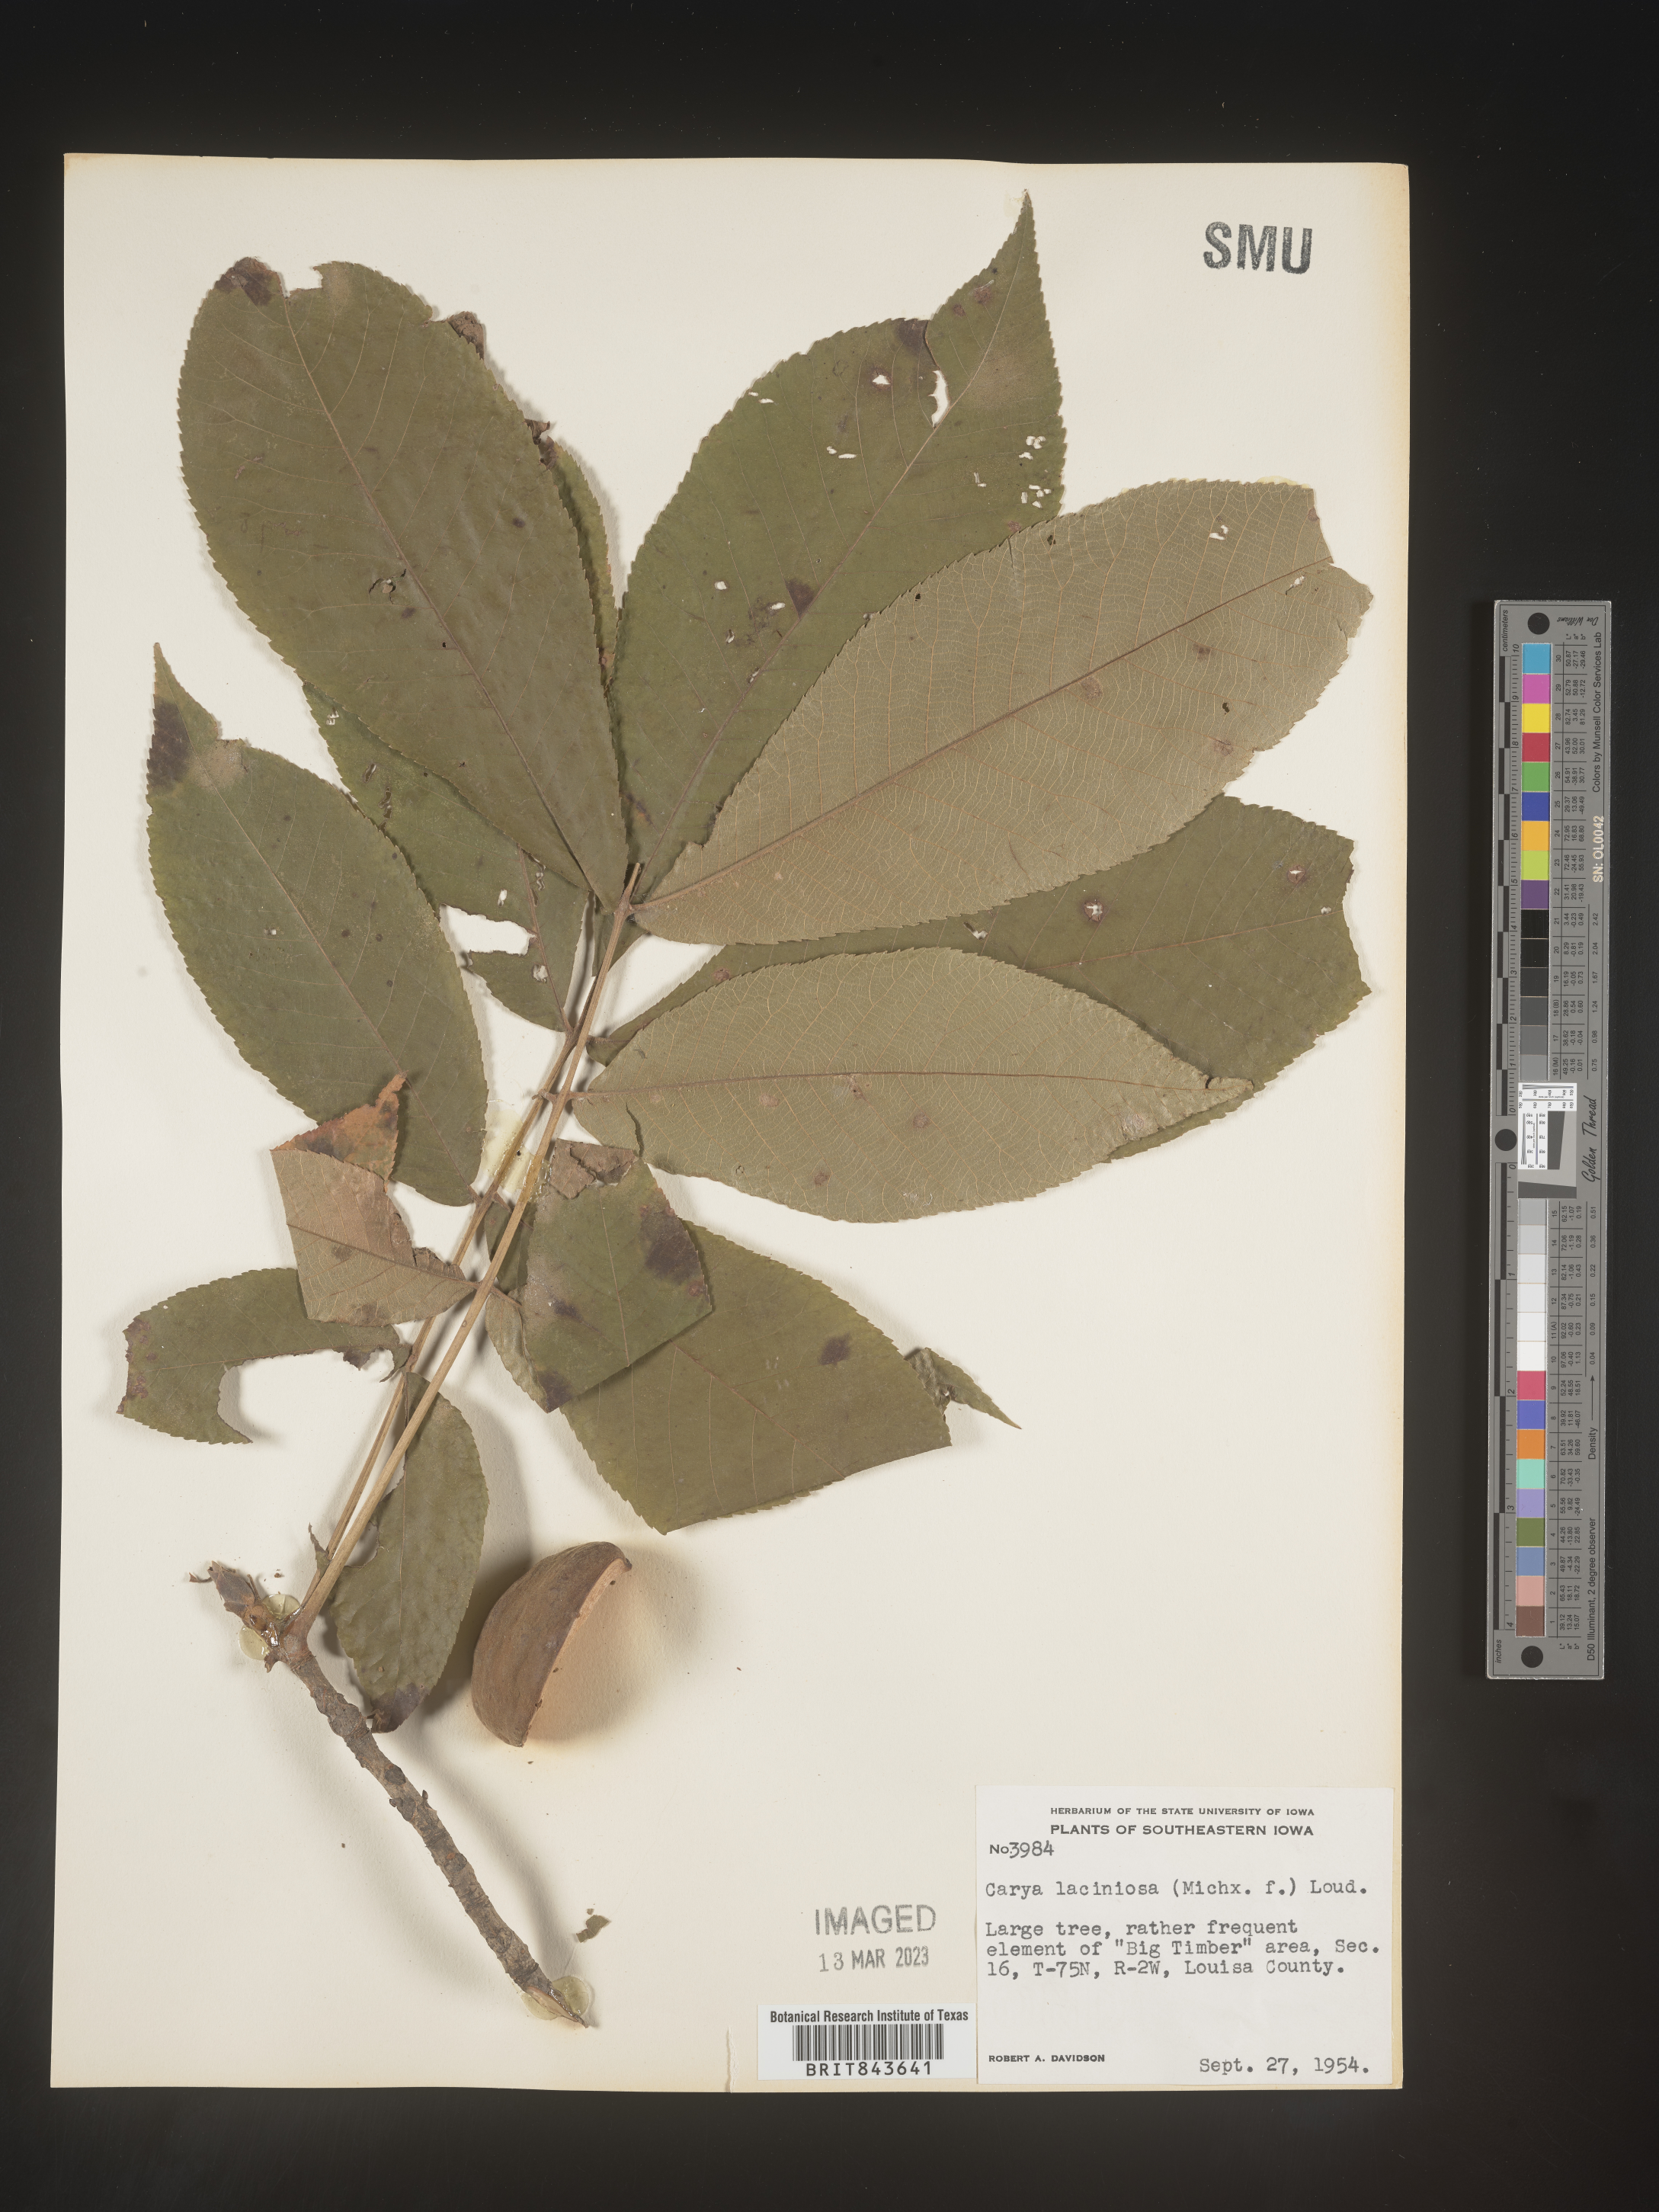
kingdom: Plantae
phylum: Tracheophyta
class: Magnoliopsida
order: Fagales
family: Juglandaceae
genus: Carya
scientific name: Carya laciniosa
